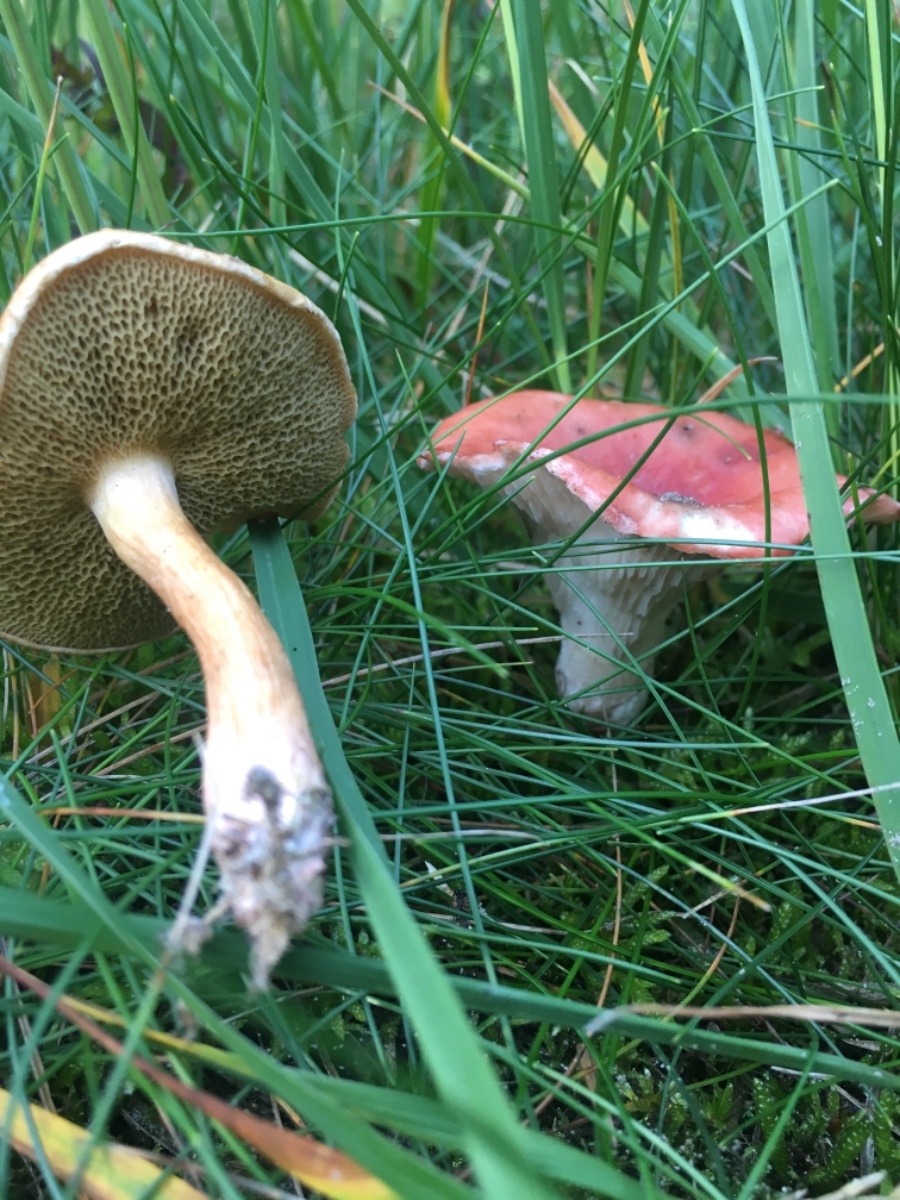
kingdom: Fungi
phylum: Basidiomycota
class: Agaricomycetes
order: Boletales
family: Gomphidiaceae
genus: Gomphidius
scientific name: Gomphidius roseus
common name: rosenrød slimslør
